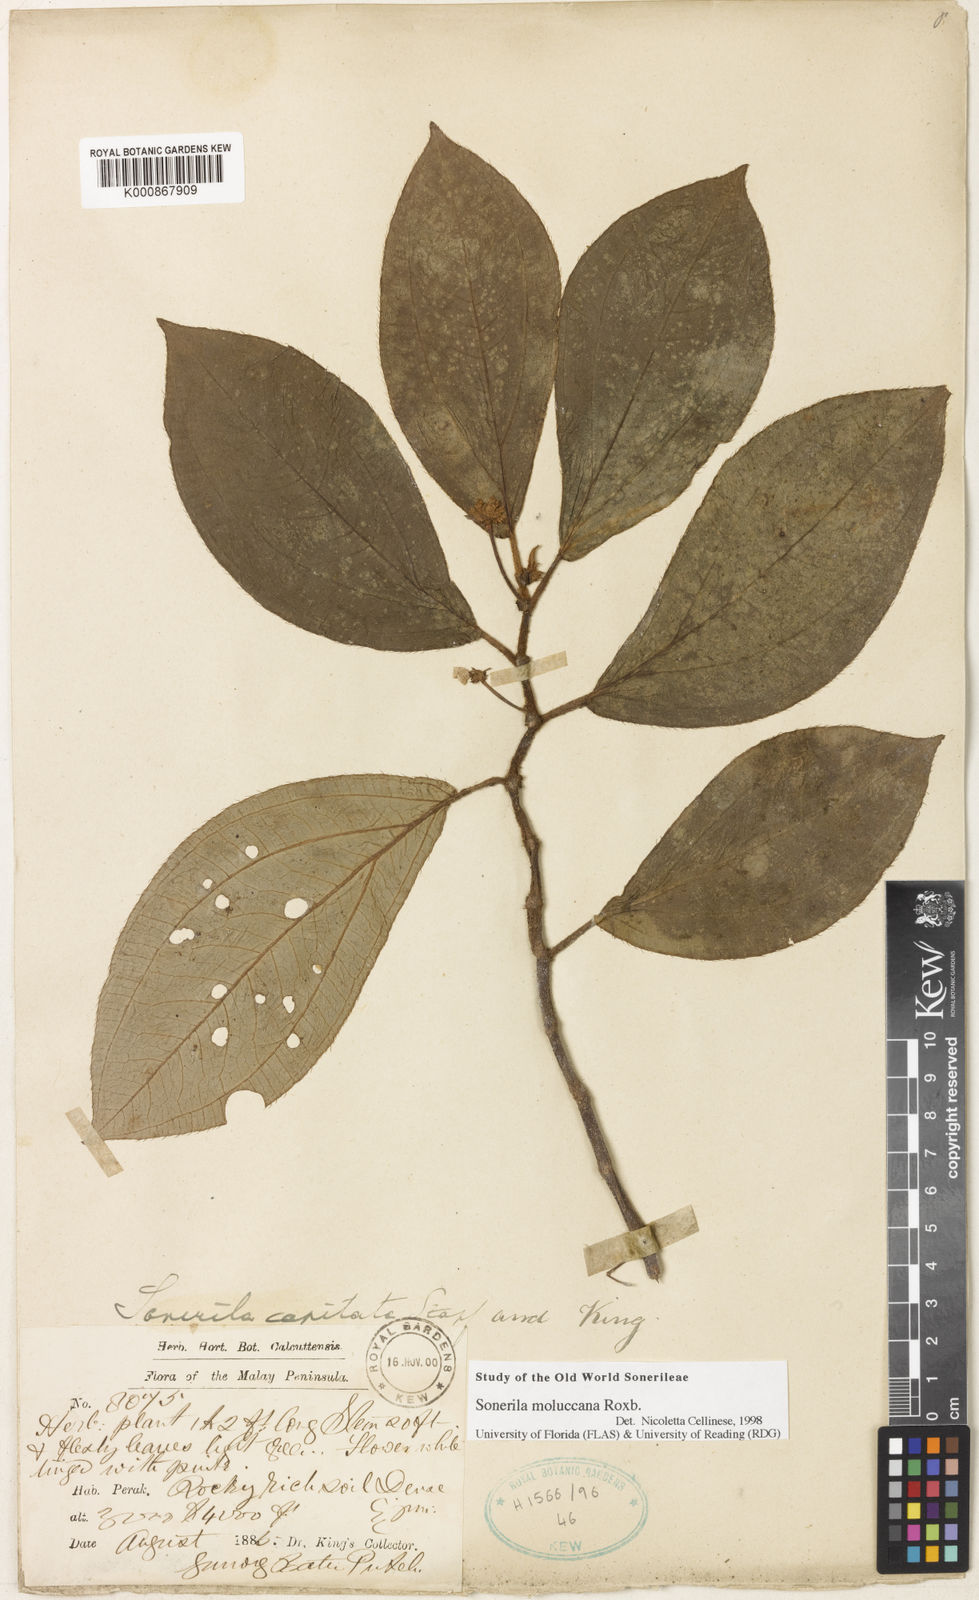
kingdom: Plantae
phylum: Tracheophyta
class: Magnoliopsida
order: Myrtales
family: Melastomataceae
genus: Sonerila
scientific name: Sonerila moluccana
